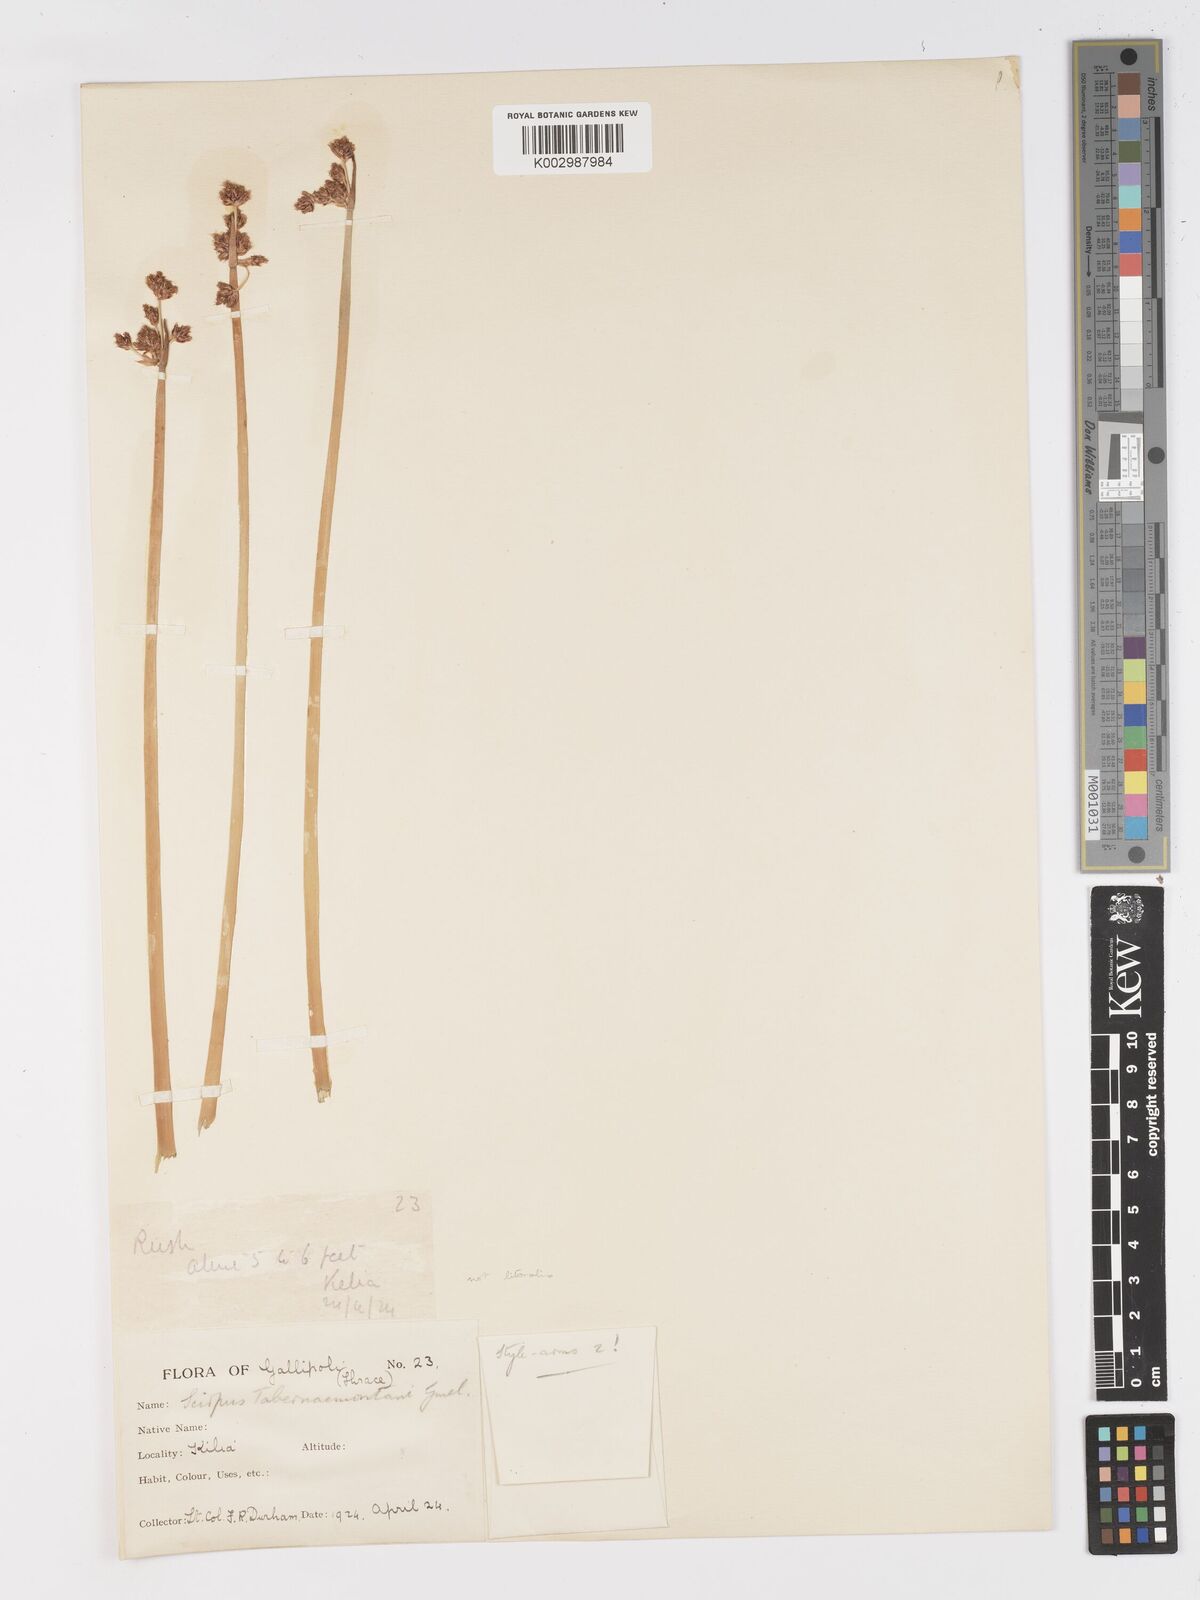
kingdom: Plantae
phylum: Tracheophyta
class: Liliopsida
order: Poales
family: Cyperaceae
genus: Schoenoplectus
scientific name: Schoenoplectus tabernaemontani
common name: Grey club-rush
